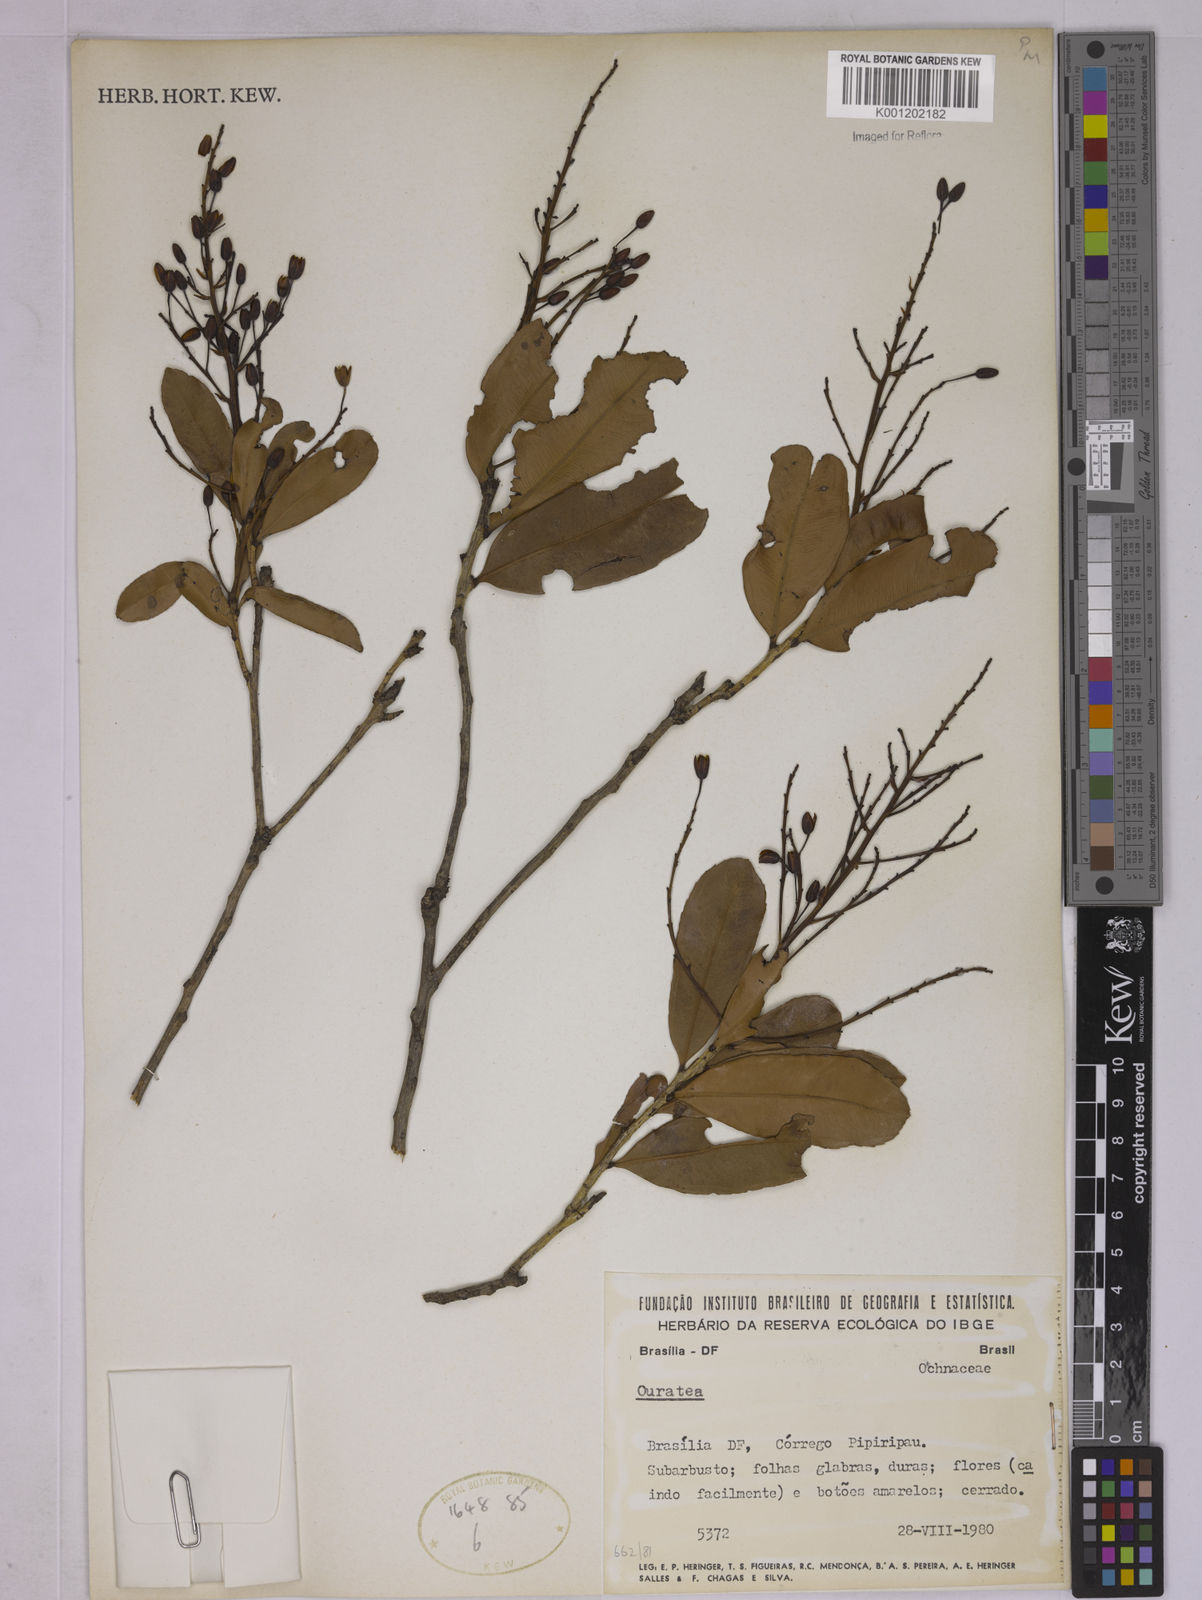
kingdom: Plantae
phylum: Tracheophyta
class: Magnoliopsida
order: Malpighiales
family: Ochnaceae
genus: Ouratea
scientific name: Ouratea
